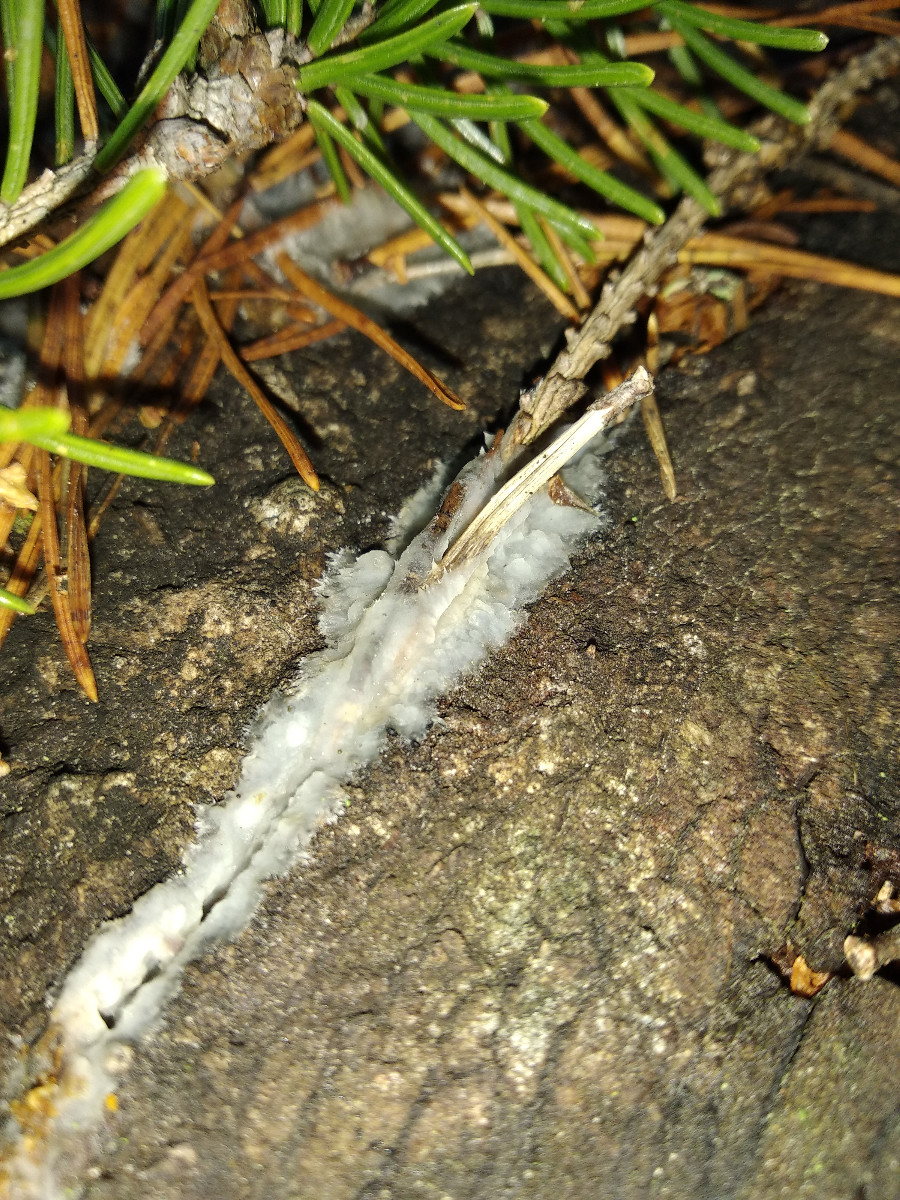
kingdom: Fungi
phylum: Basidiomycota
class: Agaricomycetes
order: Polyporales
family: Phanerochaetaceae
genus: Phlebiopsis
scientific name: Phlebiopsis gigantea
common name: kæmpebarksvamp
